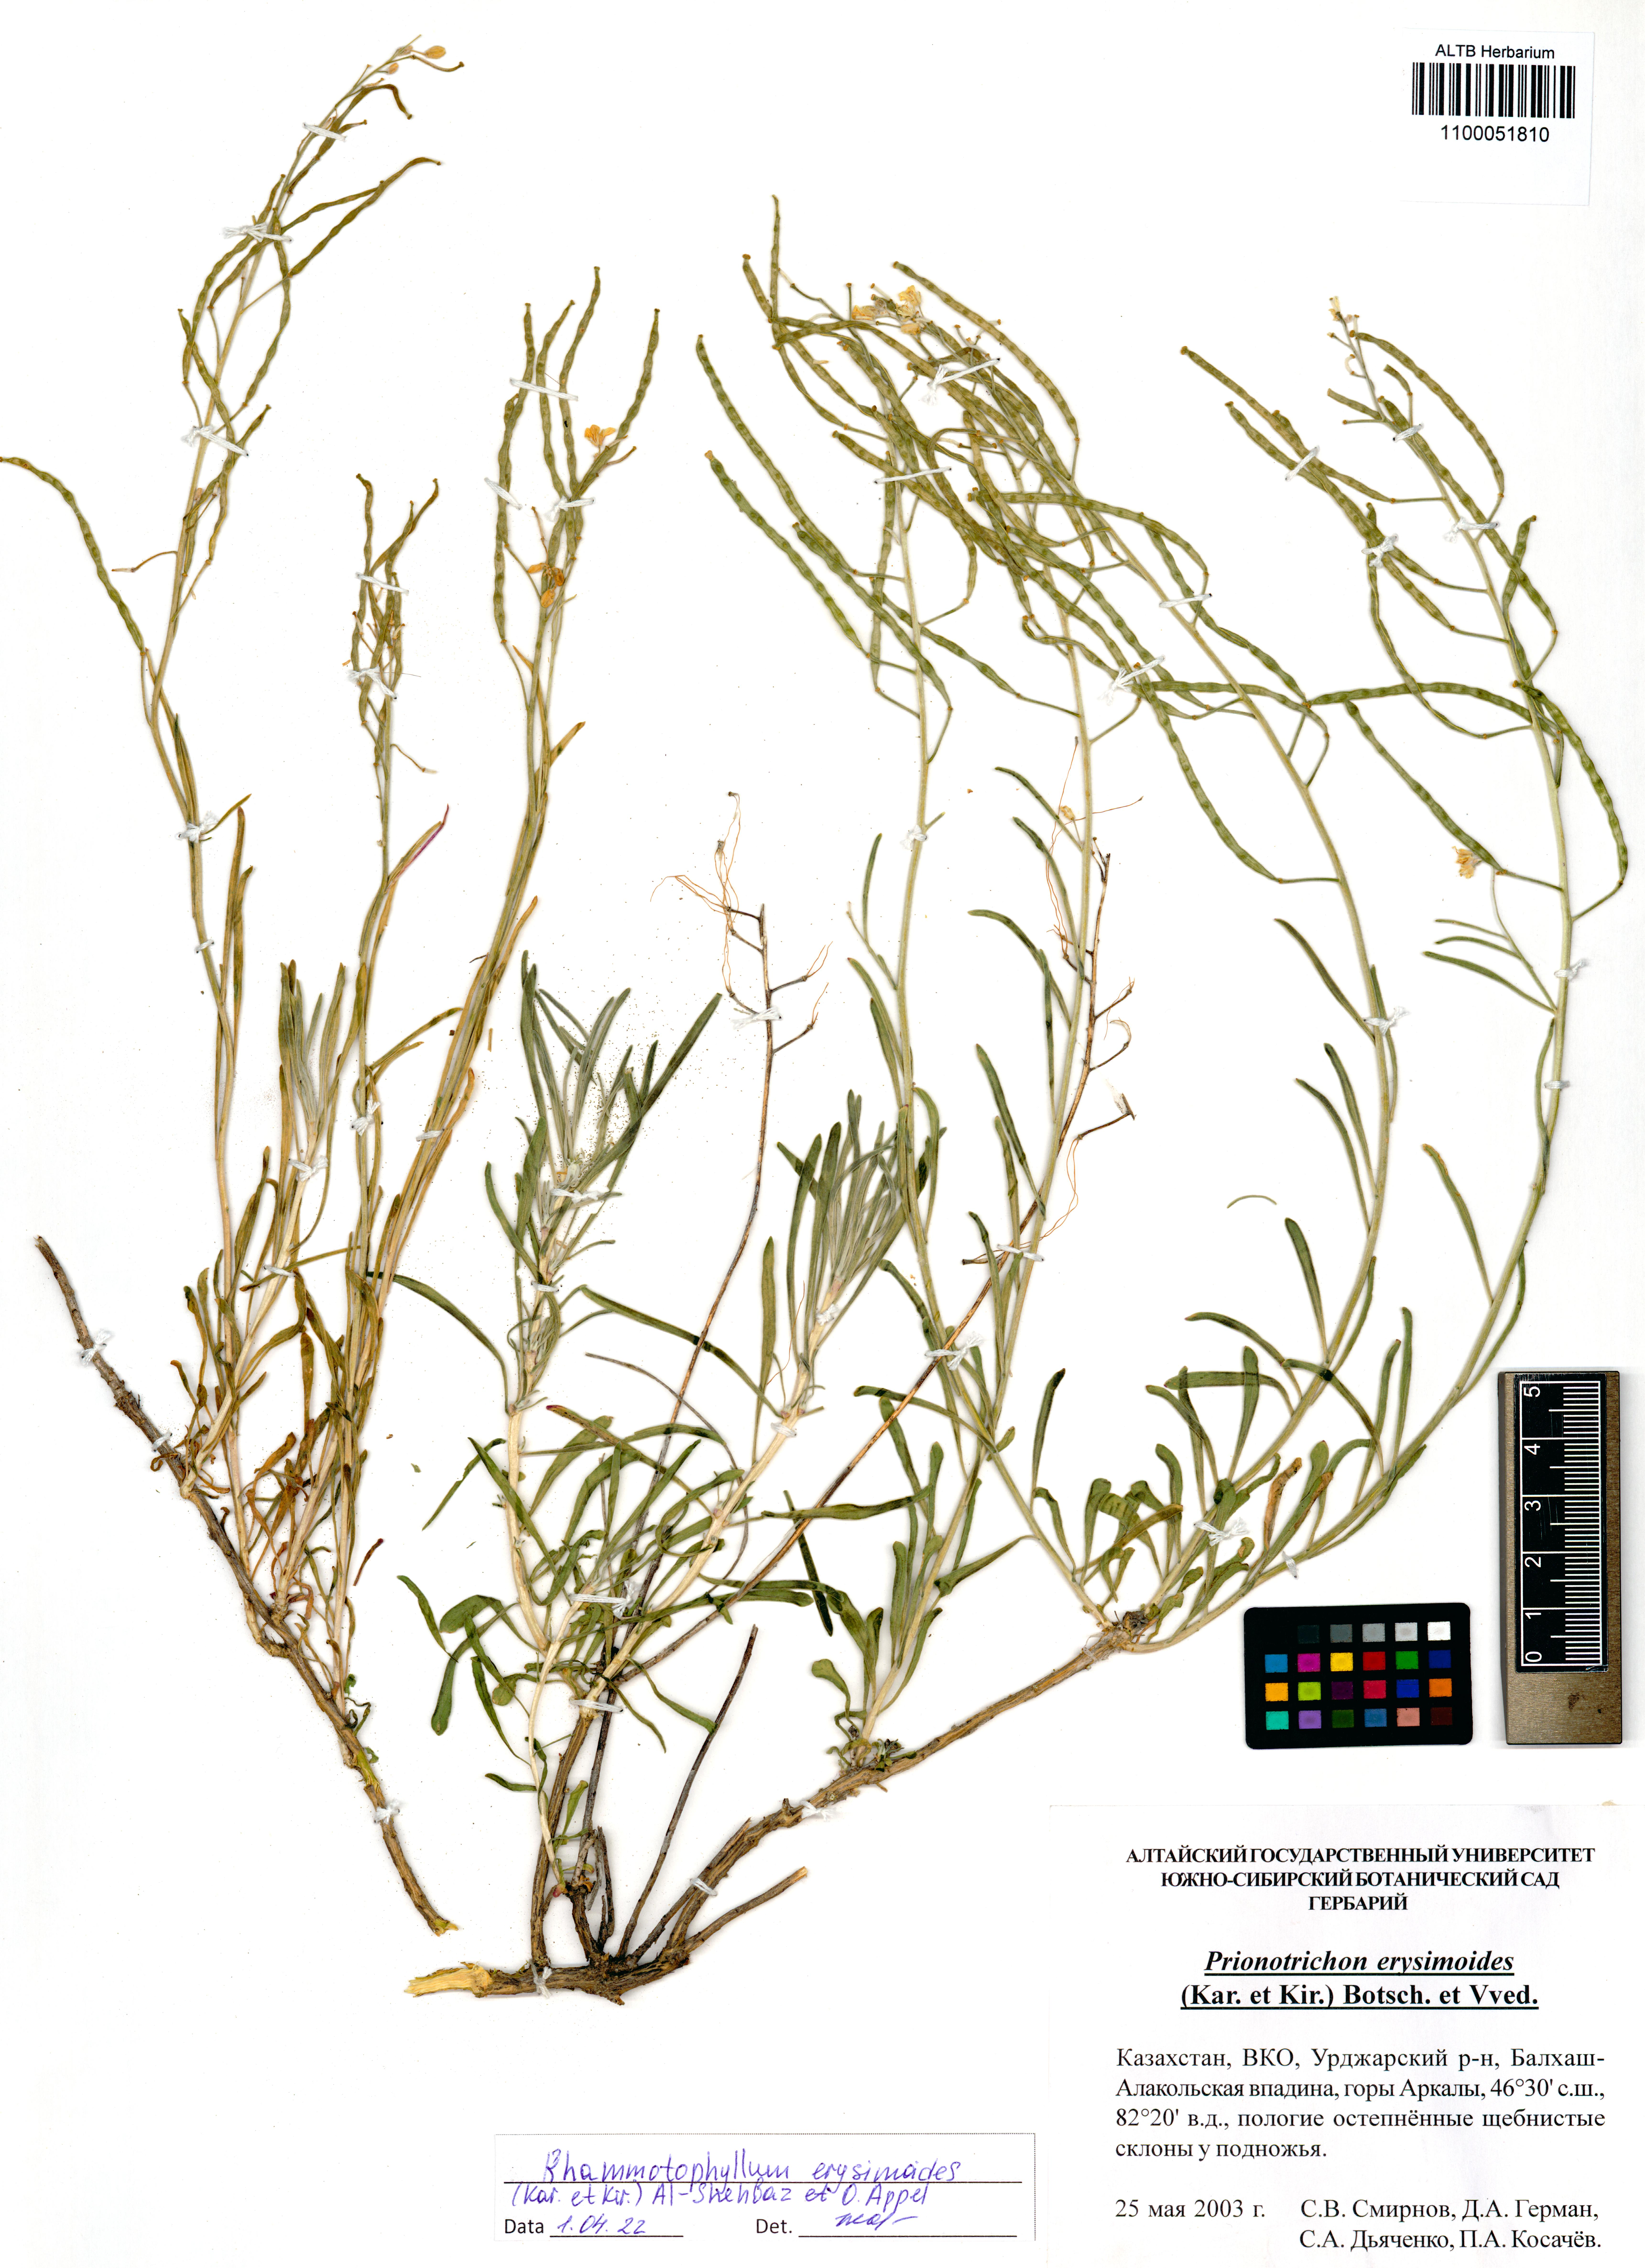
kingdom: Plantae
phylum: Tracheophyta
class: Magnoliopsida
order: Brassicales
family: Brassicaceae
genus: Rhammatophyllum
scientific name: Rhammatophyllum erysimoides
